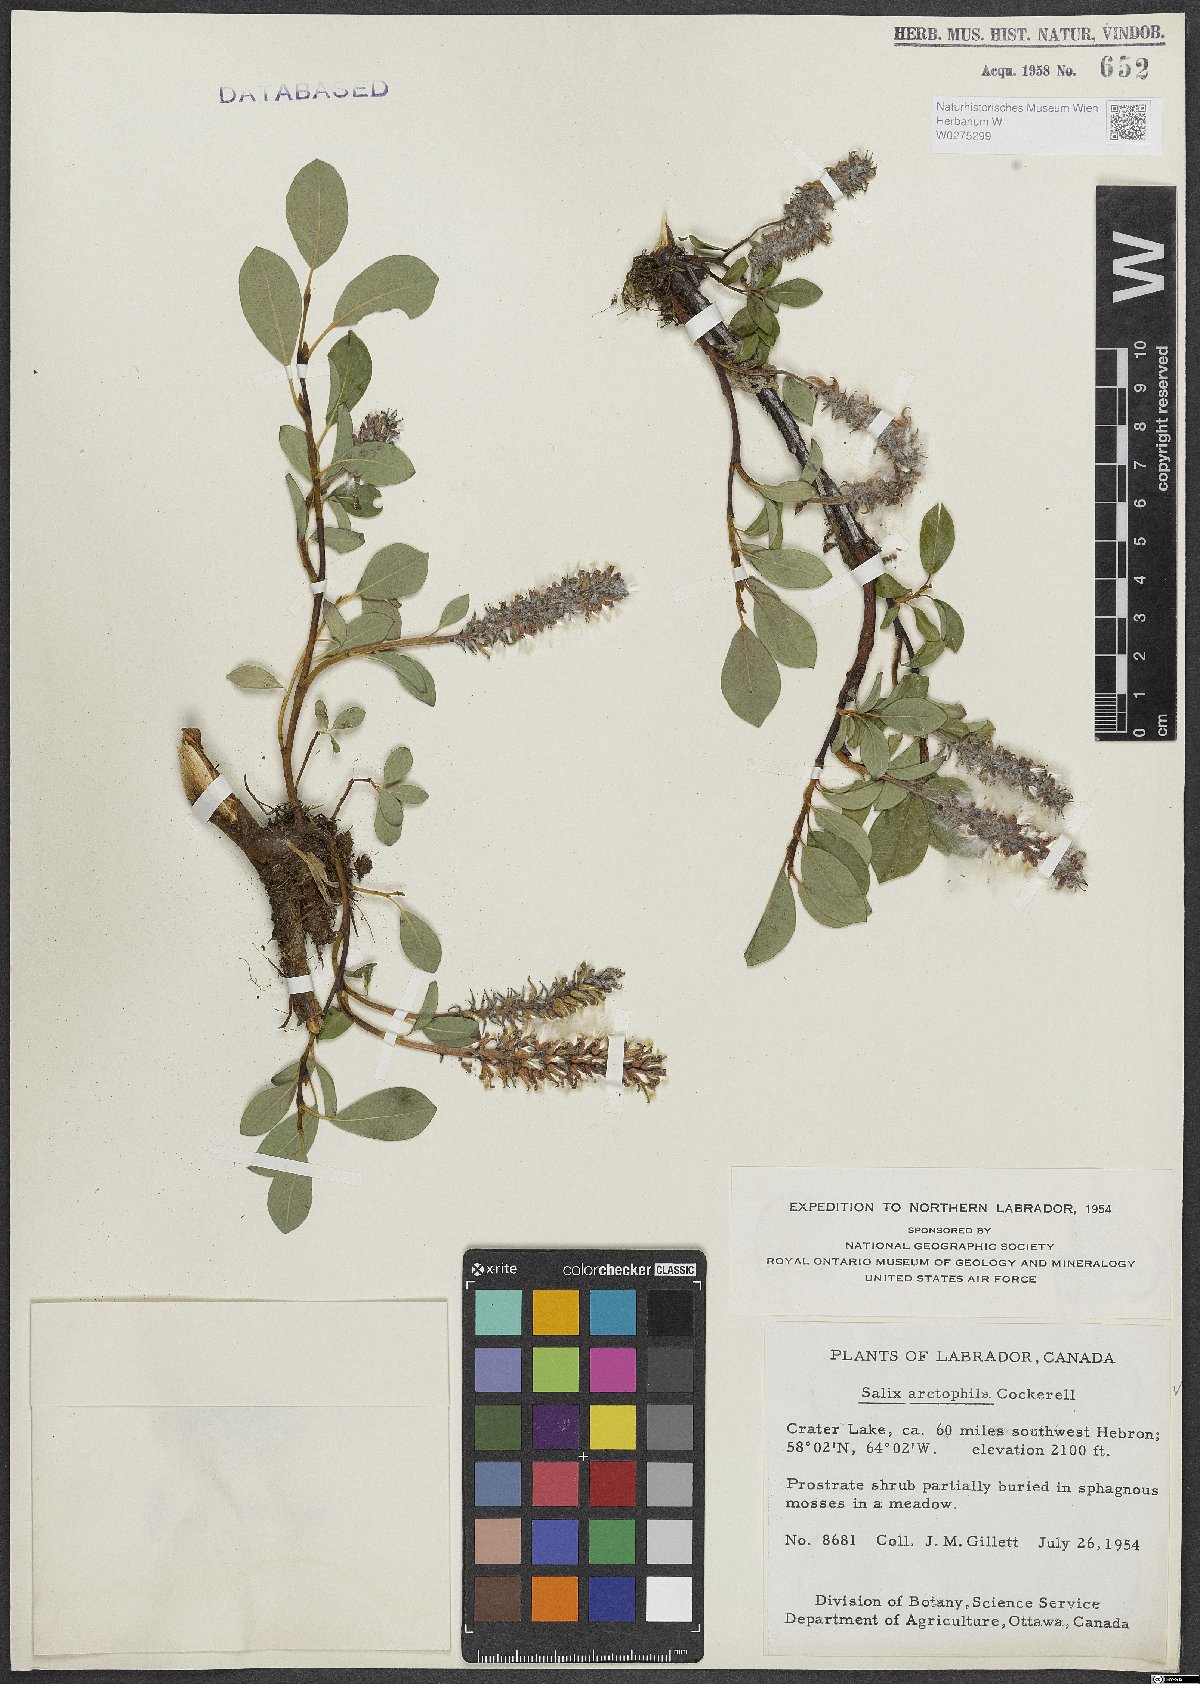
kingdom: Plantae
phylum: Tracheophyta
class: Magnoliopsida
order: Malpighiales
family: Salicaceae
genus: Salix
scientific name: Salix arctophila
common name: Greenland willow
